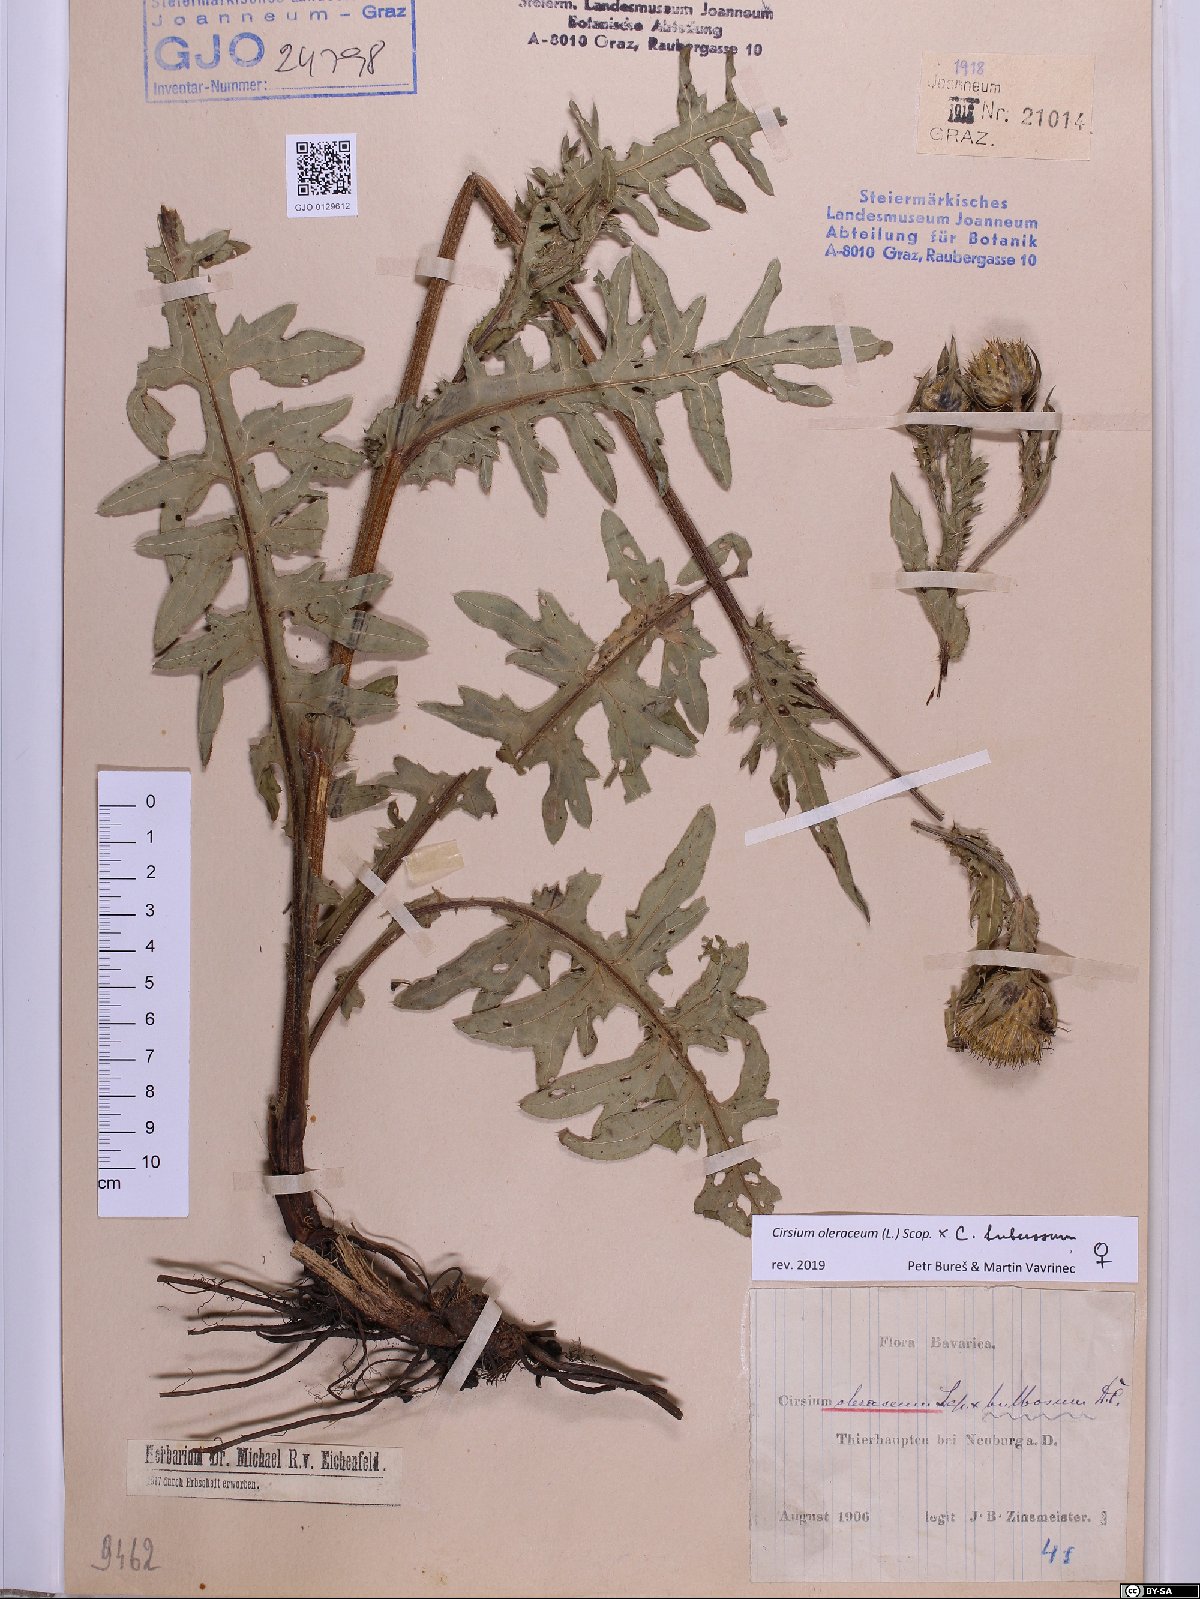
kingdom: Plantae
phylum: Tracheophyta
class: Magnoliopsida
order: Asterales
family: Asteraceae
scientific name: Asteraceae
